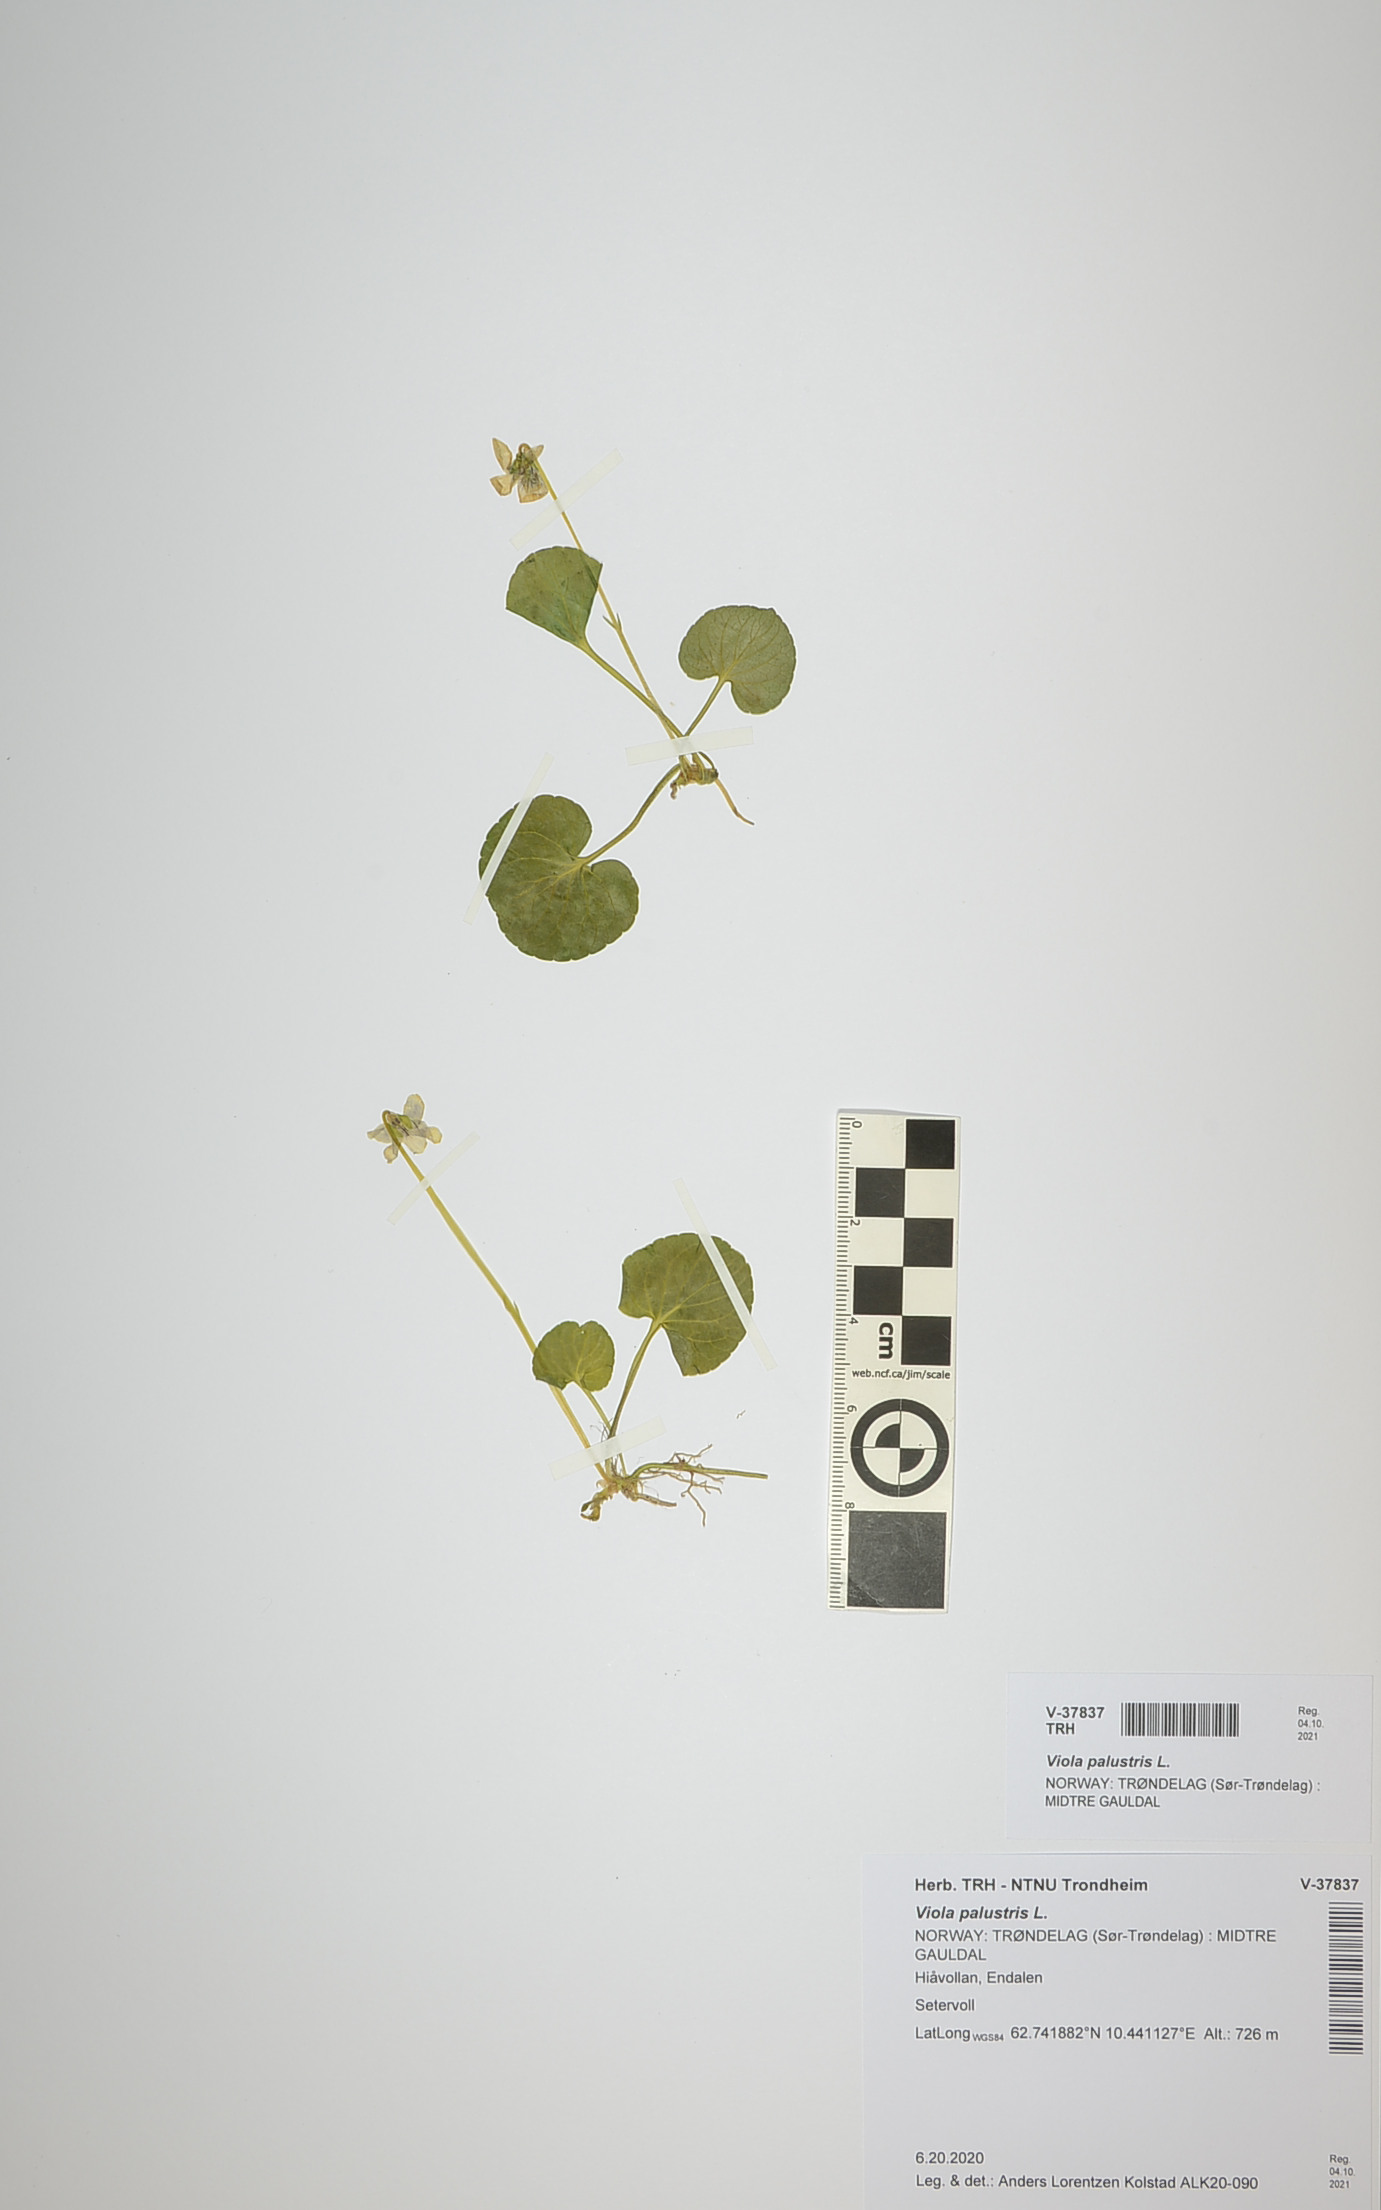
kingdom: Plantae
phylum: Tracheophyta
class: Magnoliopsida
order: Malpighiales
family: Violaceae
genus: Viola
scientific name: Viola palustris
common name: Marsh violet
